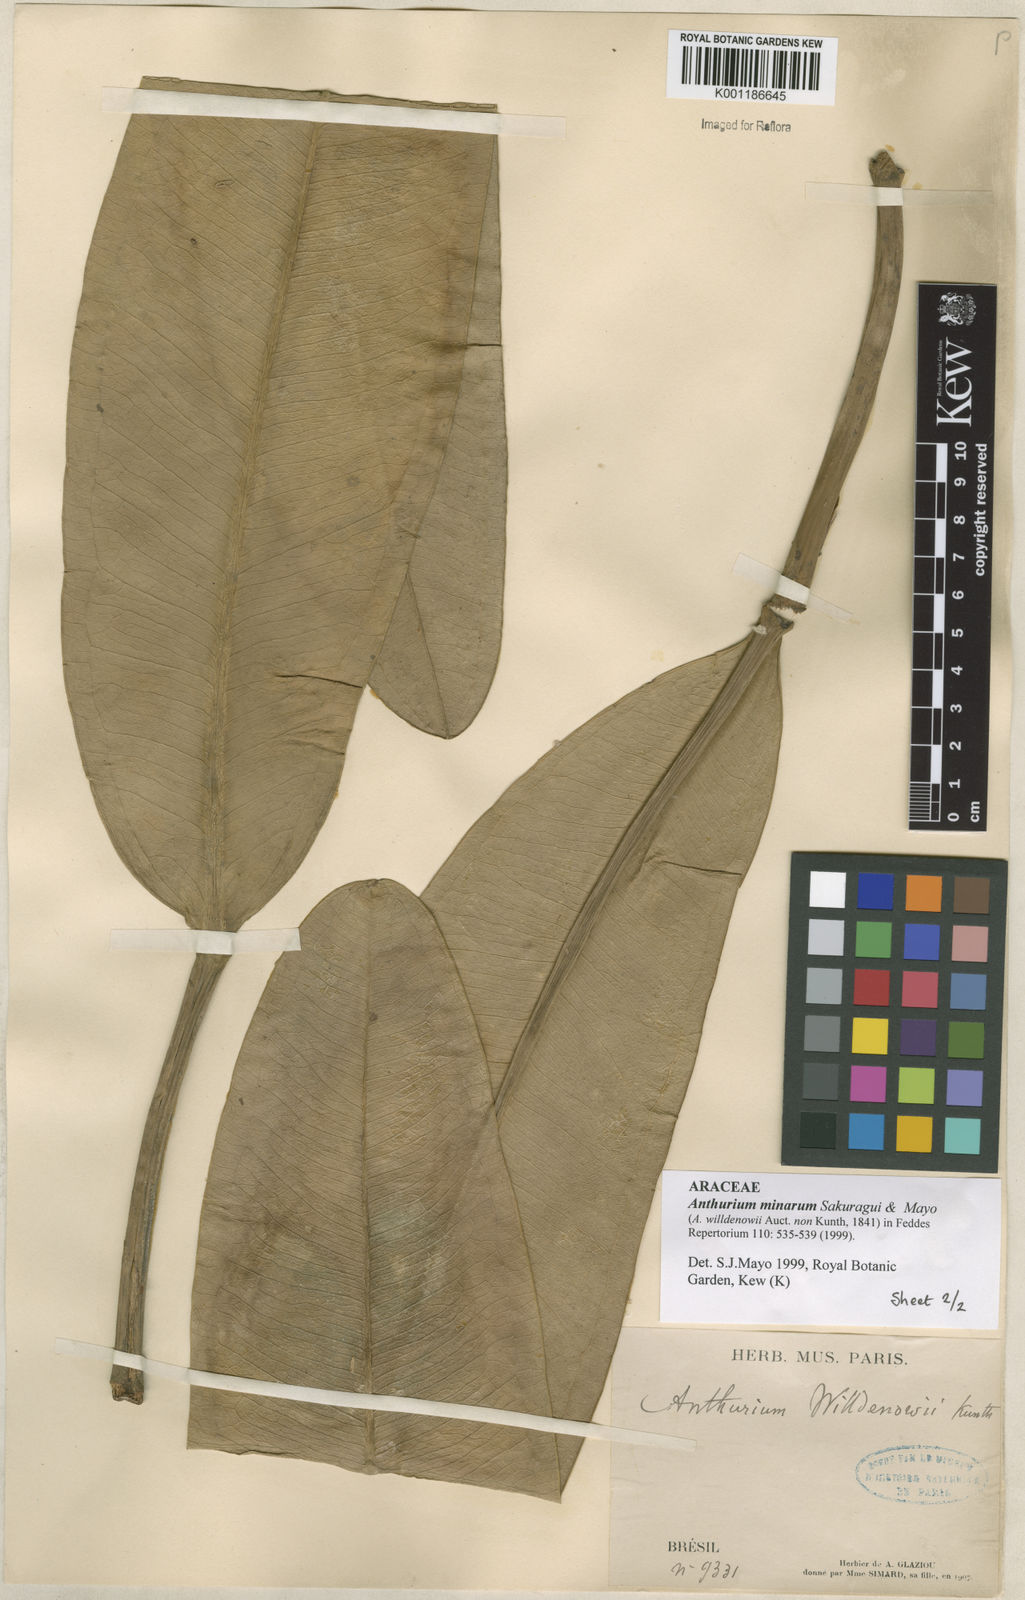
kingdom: Plantae
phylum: Tracheophyta
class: Liliopsida
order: Alismatales
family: Araceae
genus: Anthurium
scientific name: Anthurium minarum
